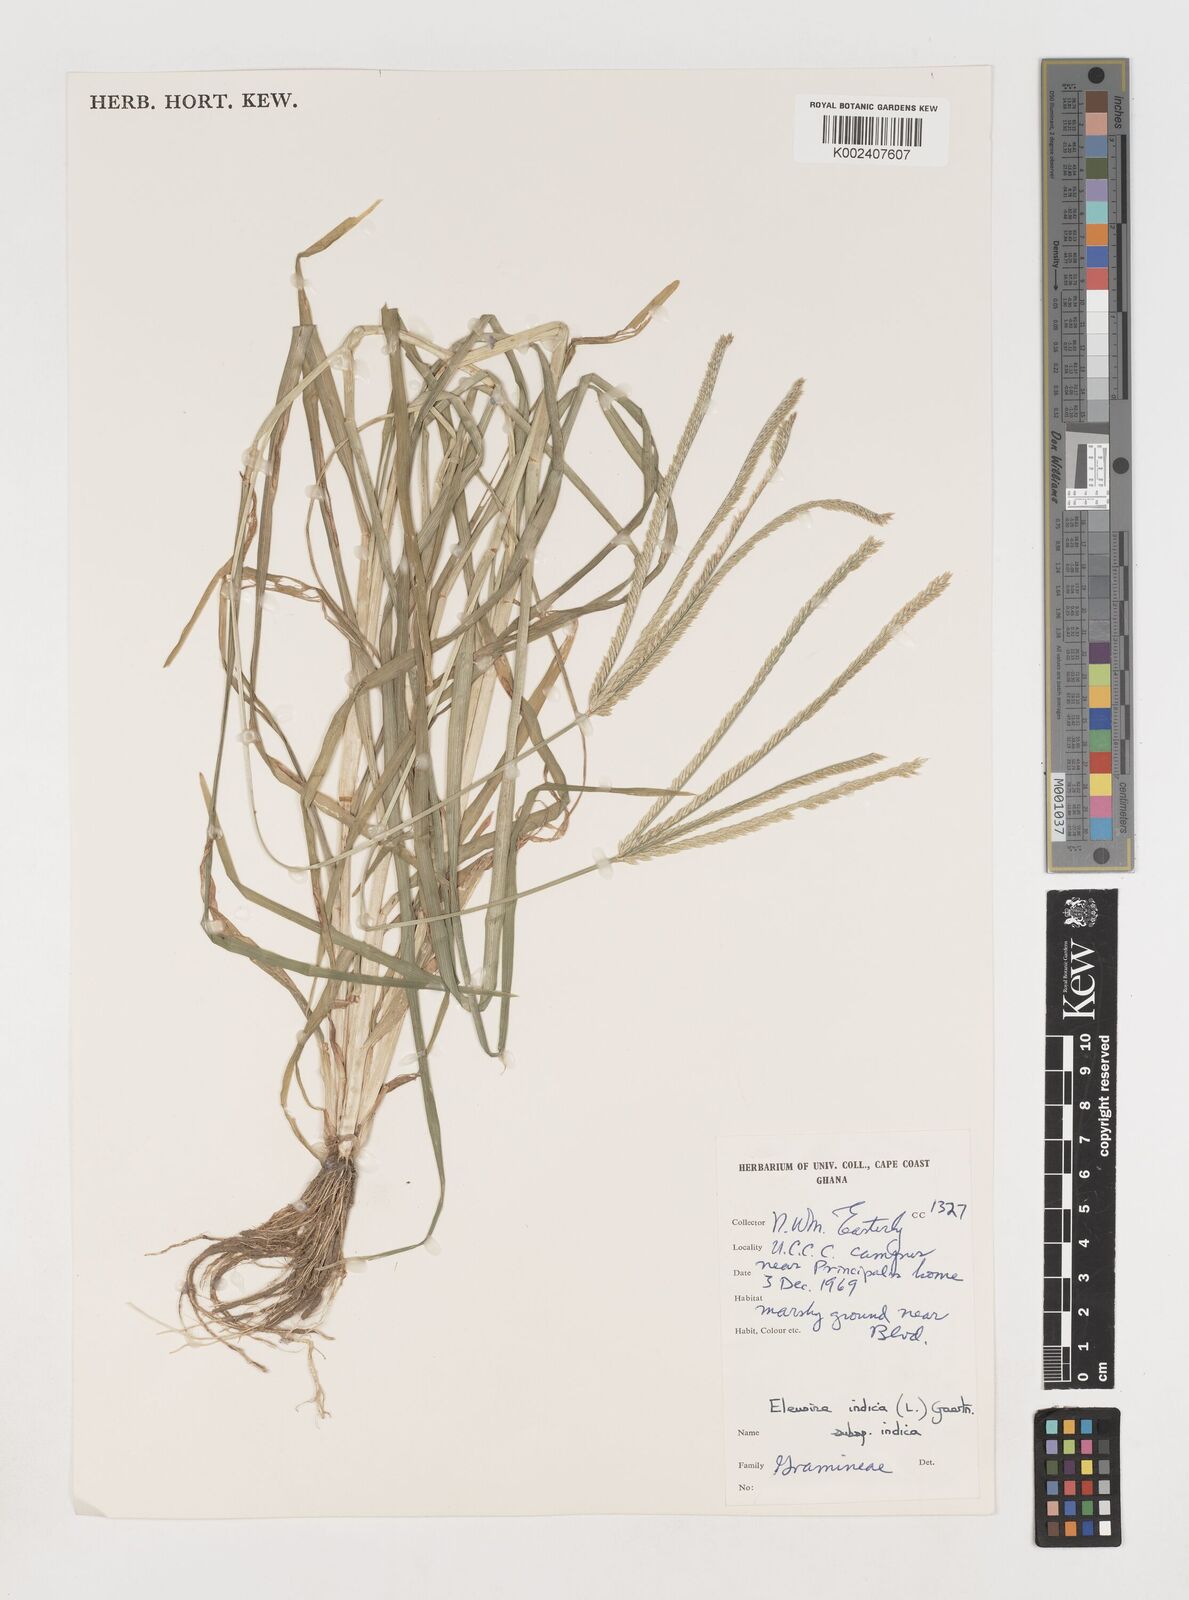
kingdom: Plantae
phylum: Tracheophyta
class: Liliopsida
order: Poales
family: Poaceae
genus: Eleusine
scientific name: Eleusine indica
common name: Yard-grass
